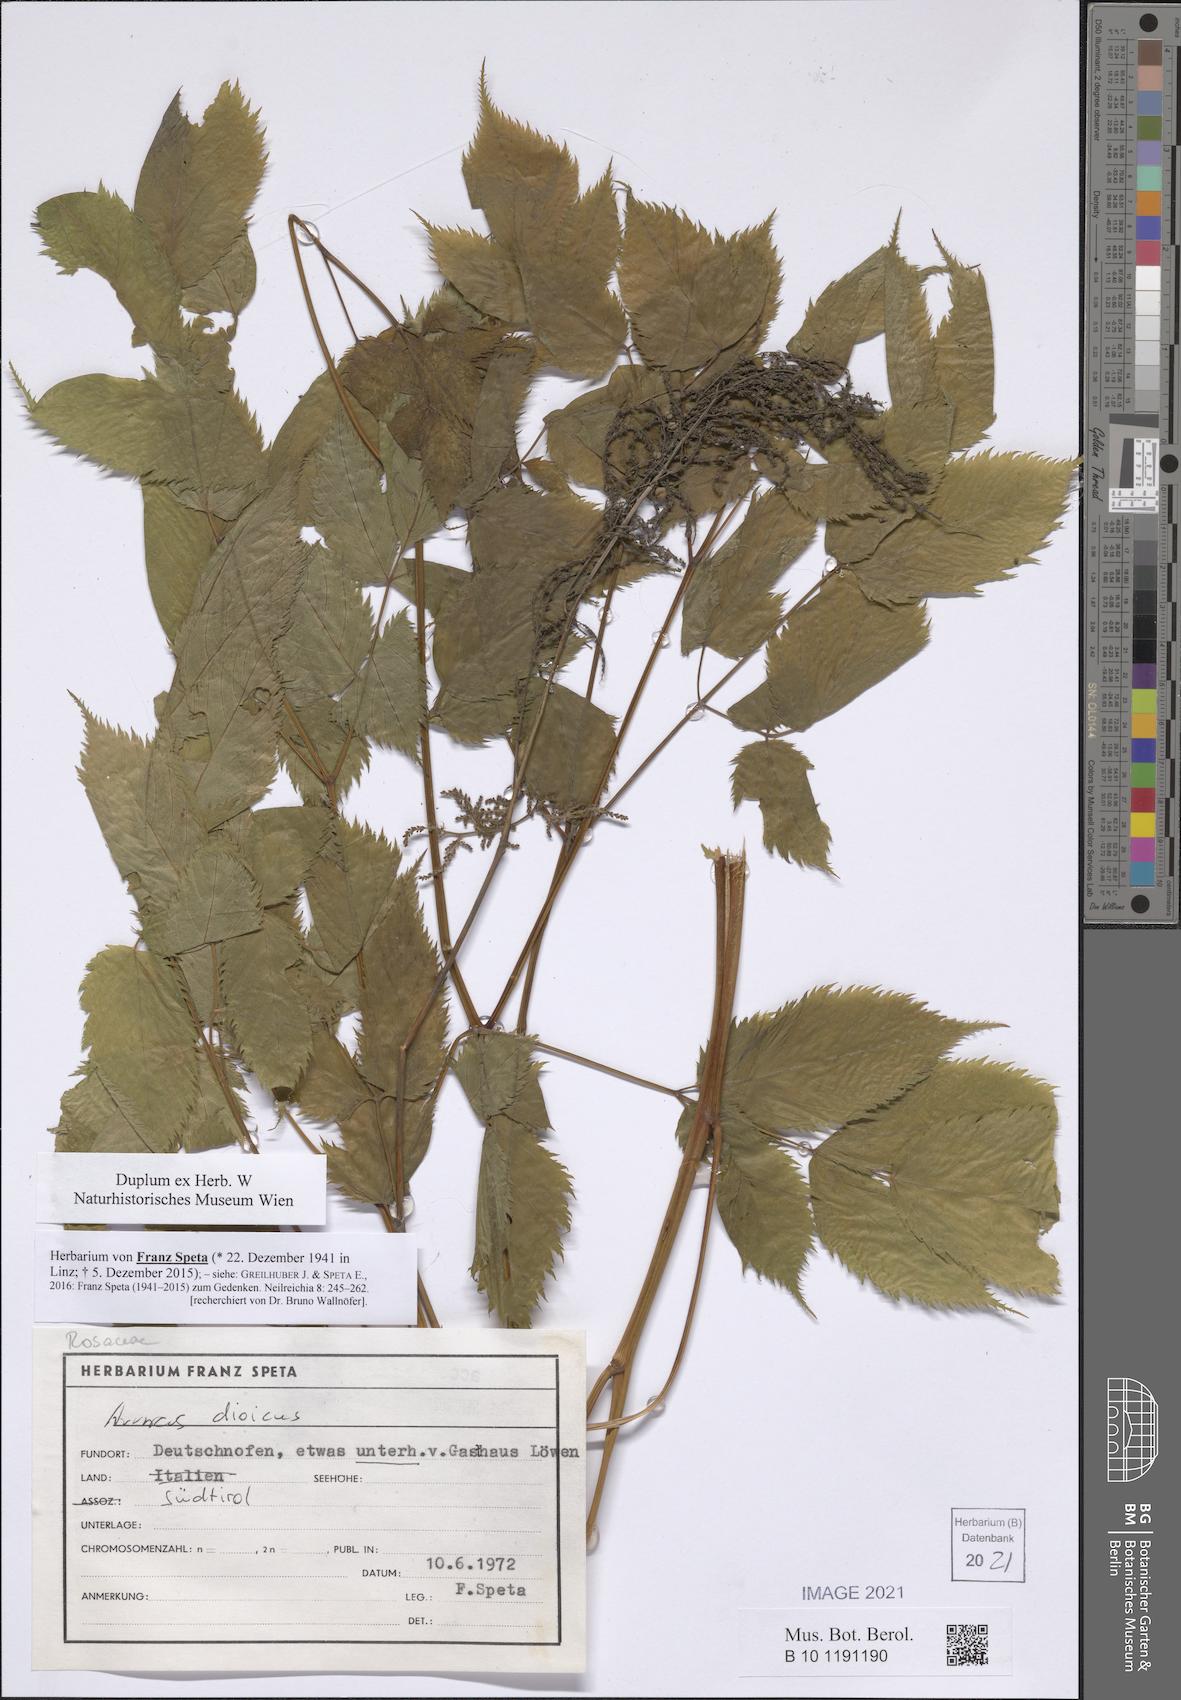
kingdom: Plantae
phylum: Tracheophyta
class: Magnoliopsida
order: Rosales
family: Rosaceae
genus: Aruncus
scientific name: Aruncus dioicus
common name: Buck's-beard
